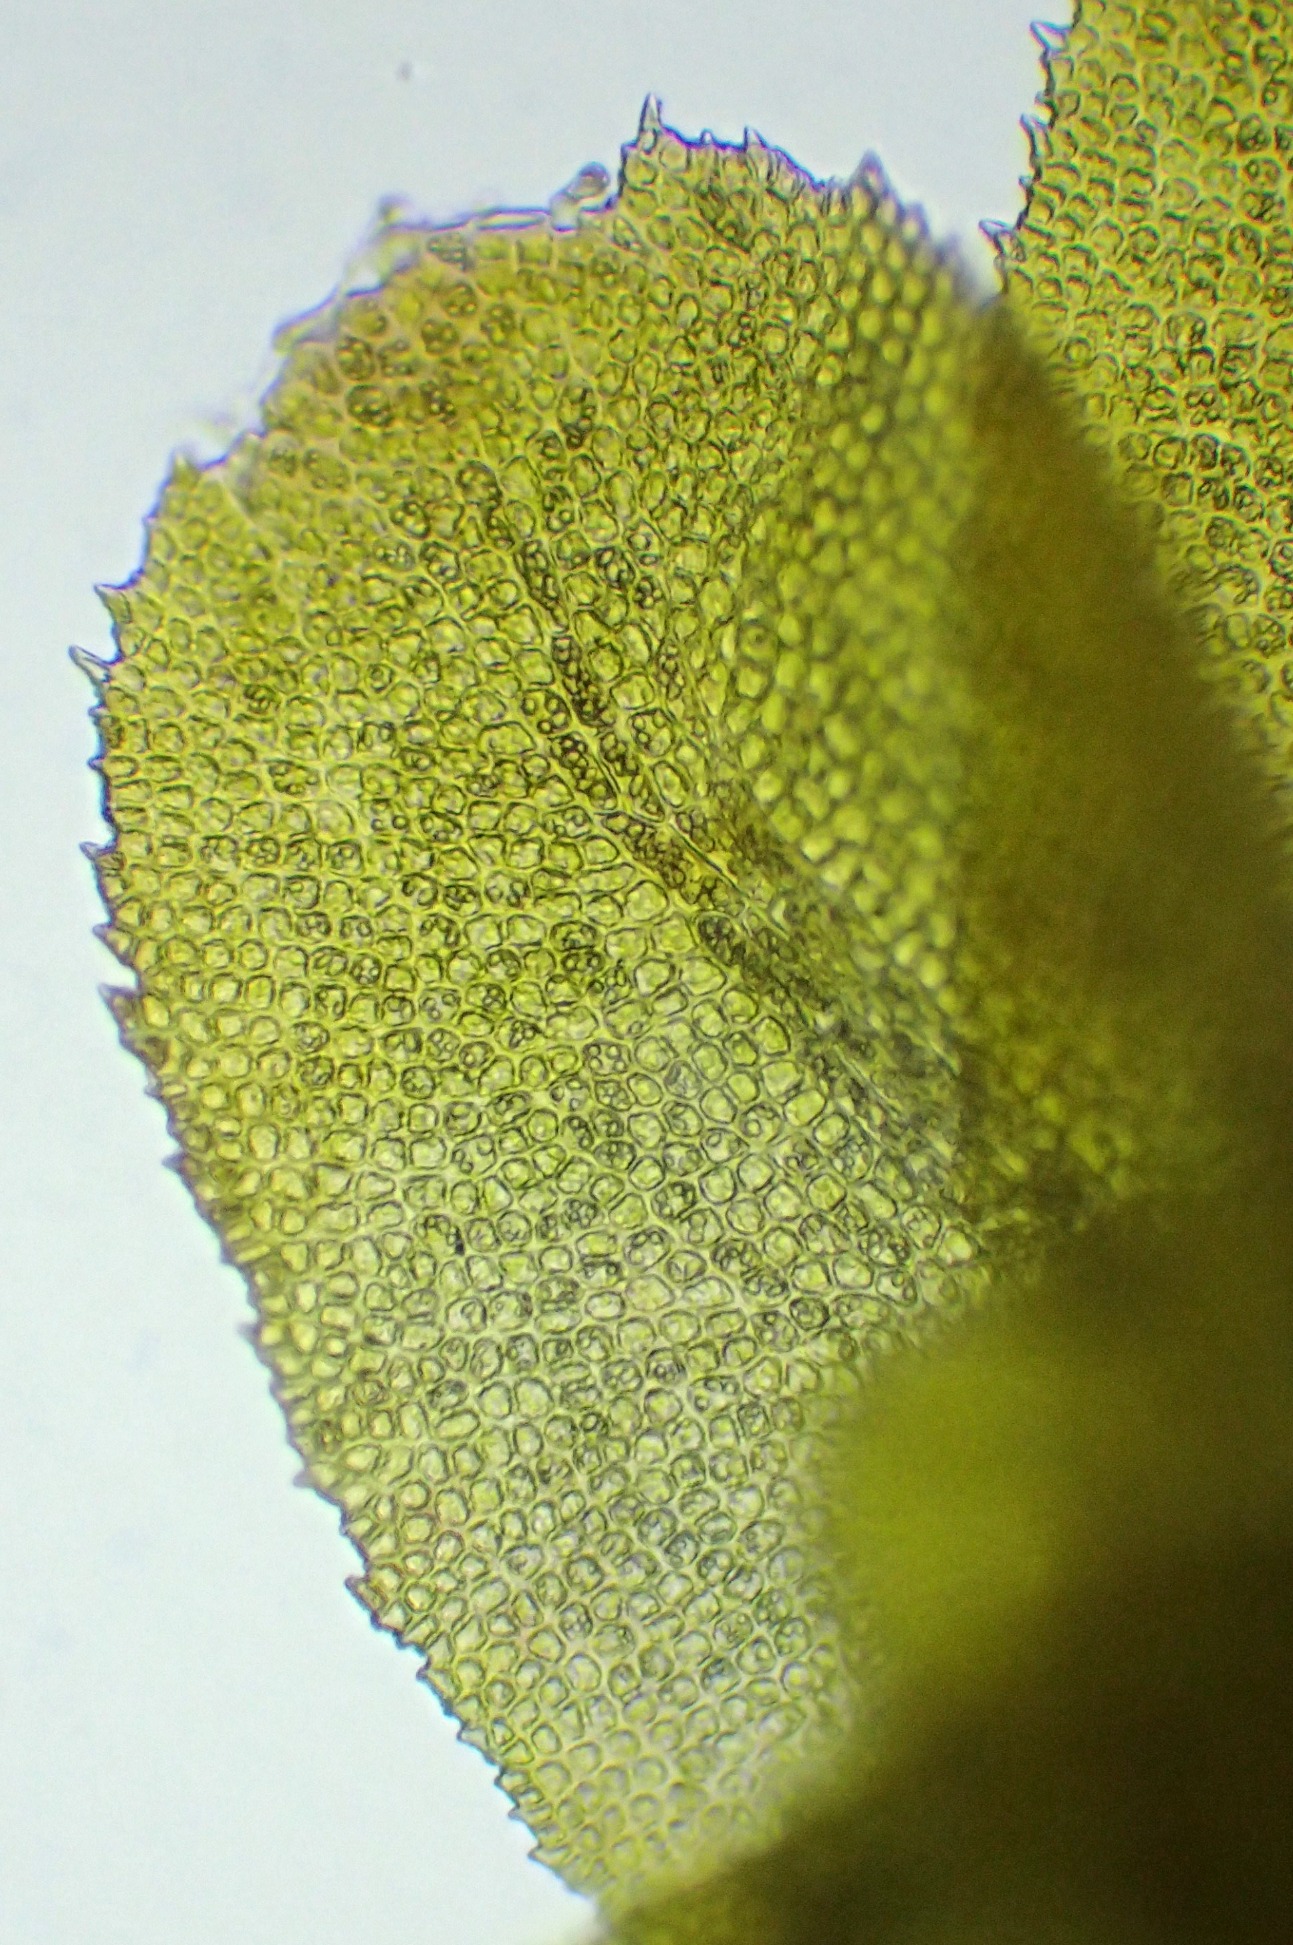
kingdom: Plantae
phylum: Marchantiophyta
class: Jungermanniopsida
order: Jungermanniales
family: Scapaniaceae
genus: Diplophyllum
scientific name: Diplophyllum albicans
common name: Stribet dobbeltblad
